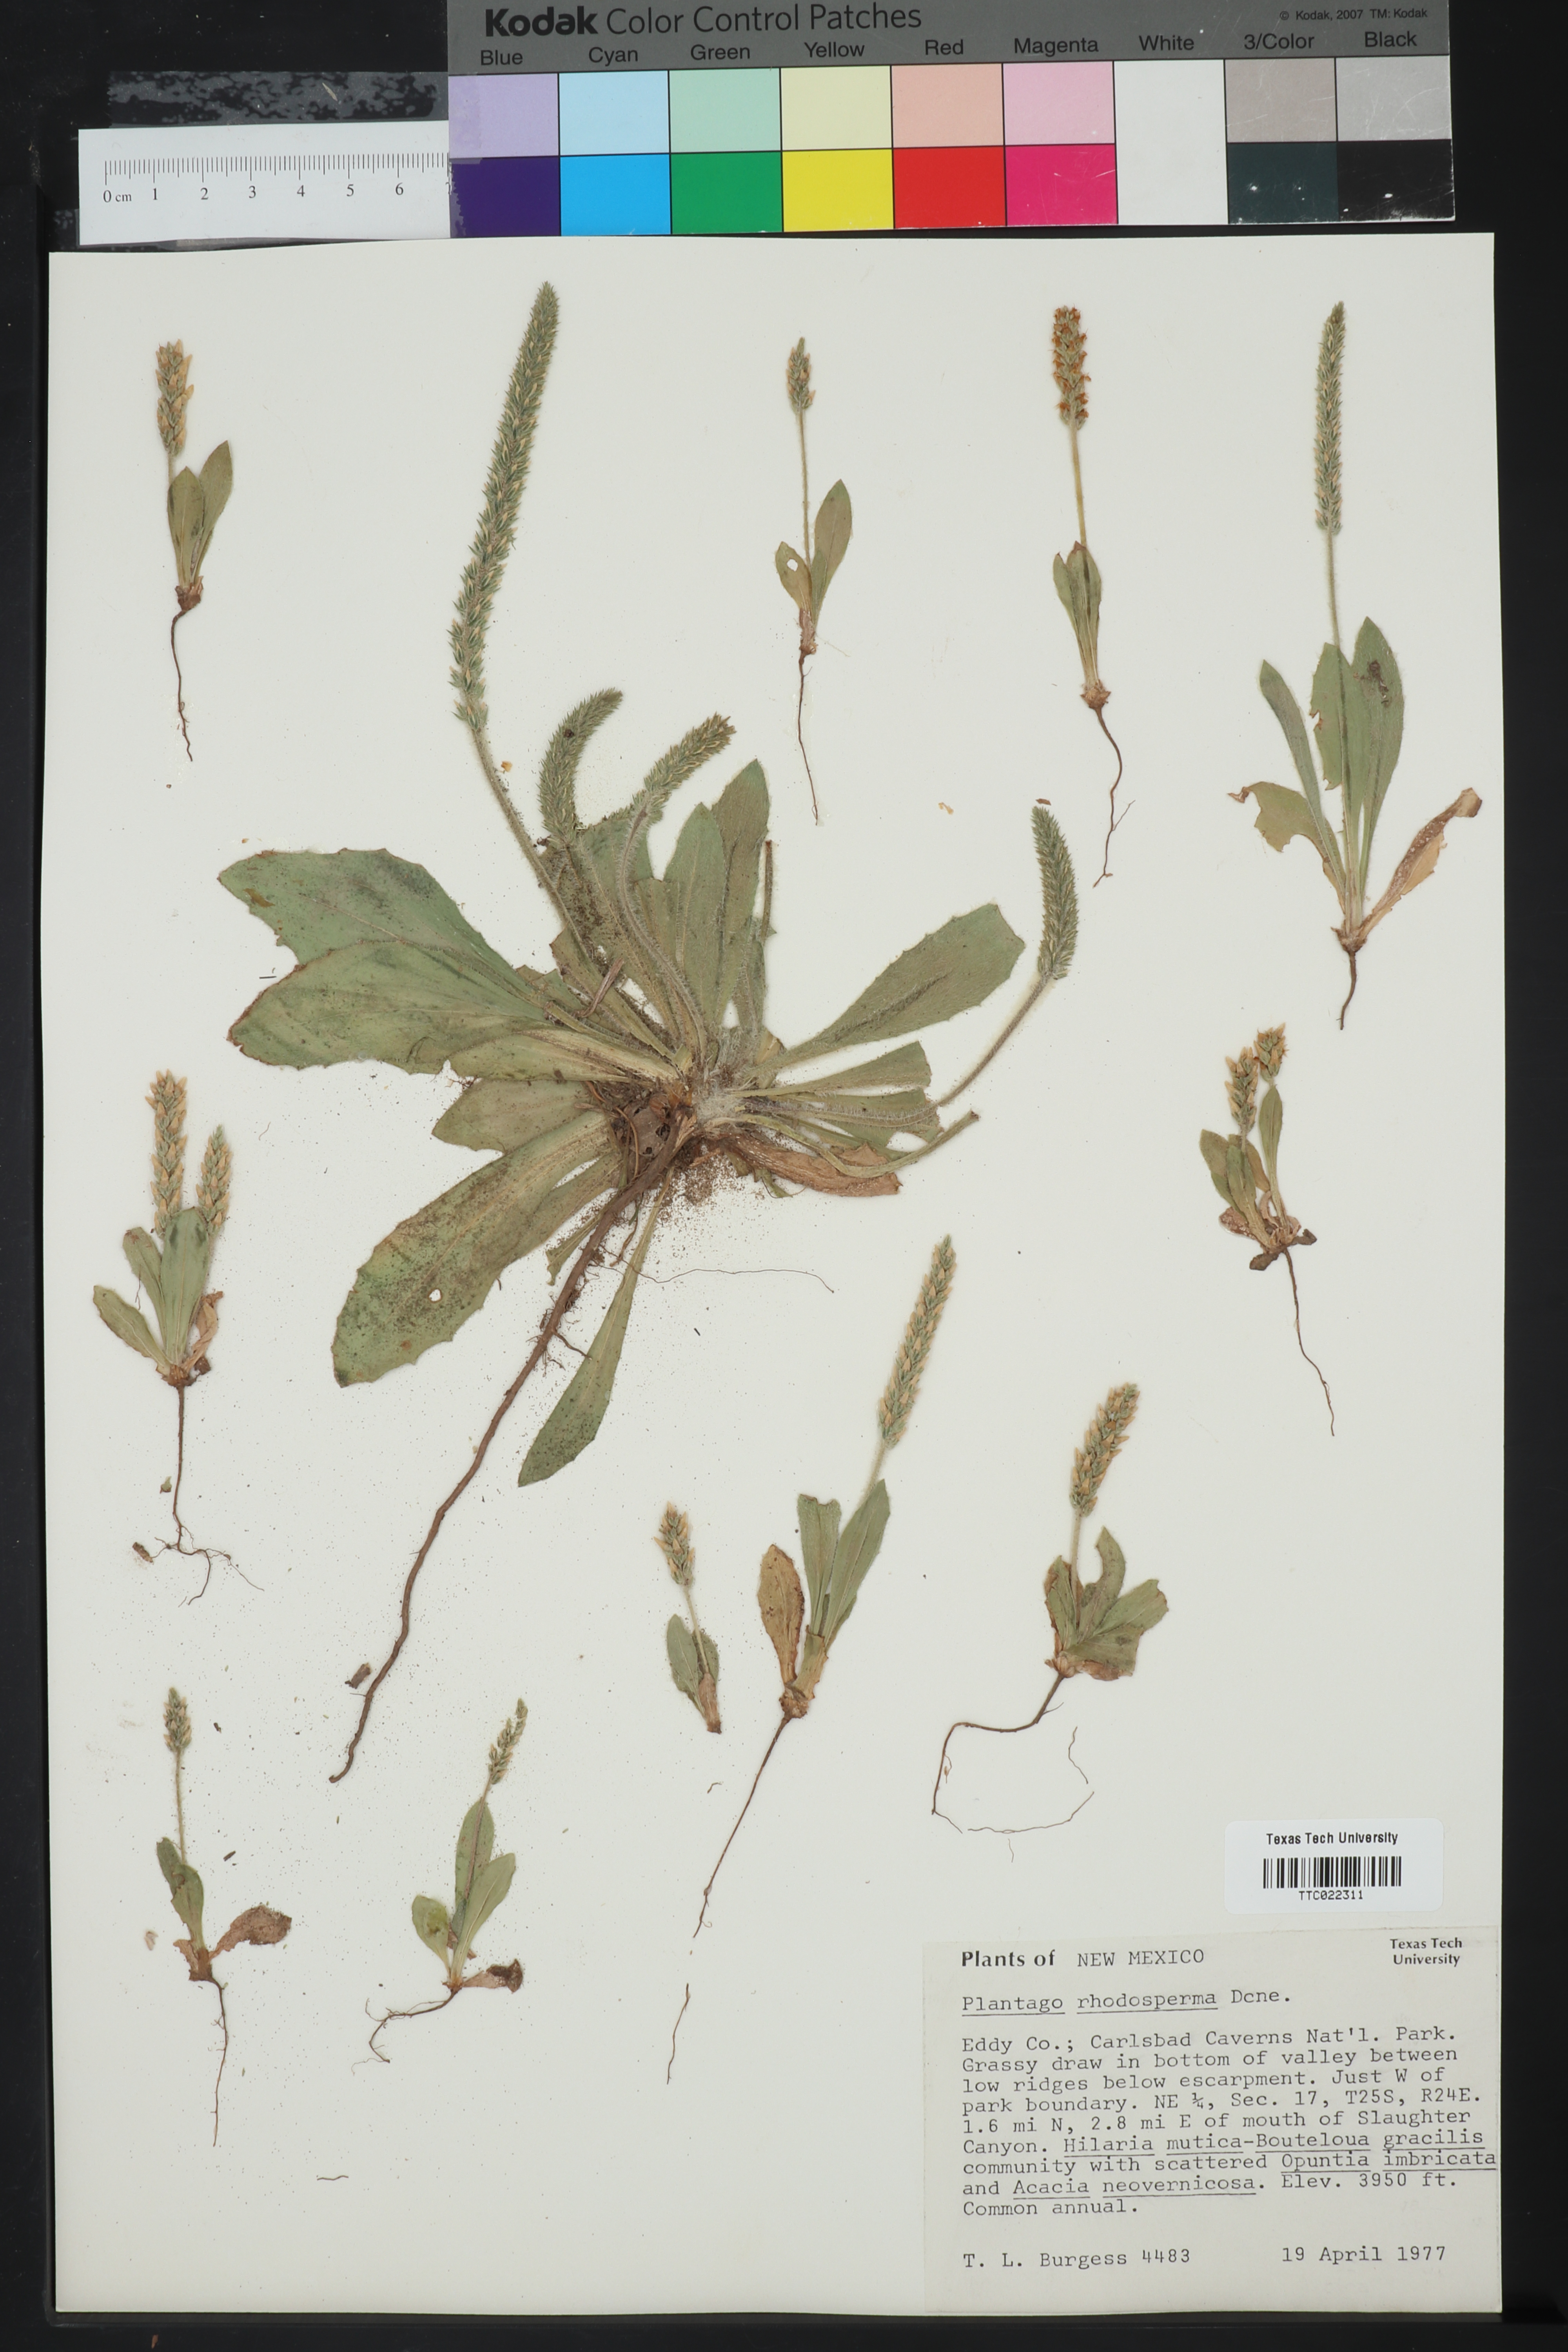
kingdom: Plantae
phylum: Tracheophyta
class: Magnoliopsida
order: Lamiales
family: Plantaginaceae
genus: Plantago
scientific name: Plantago rhodosperma
